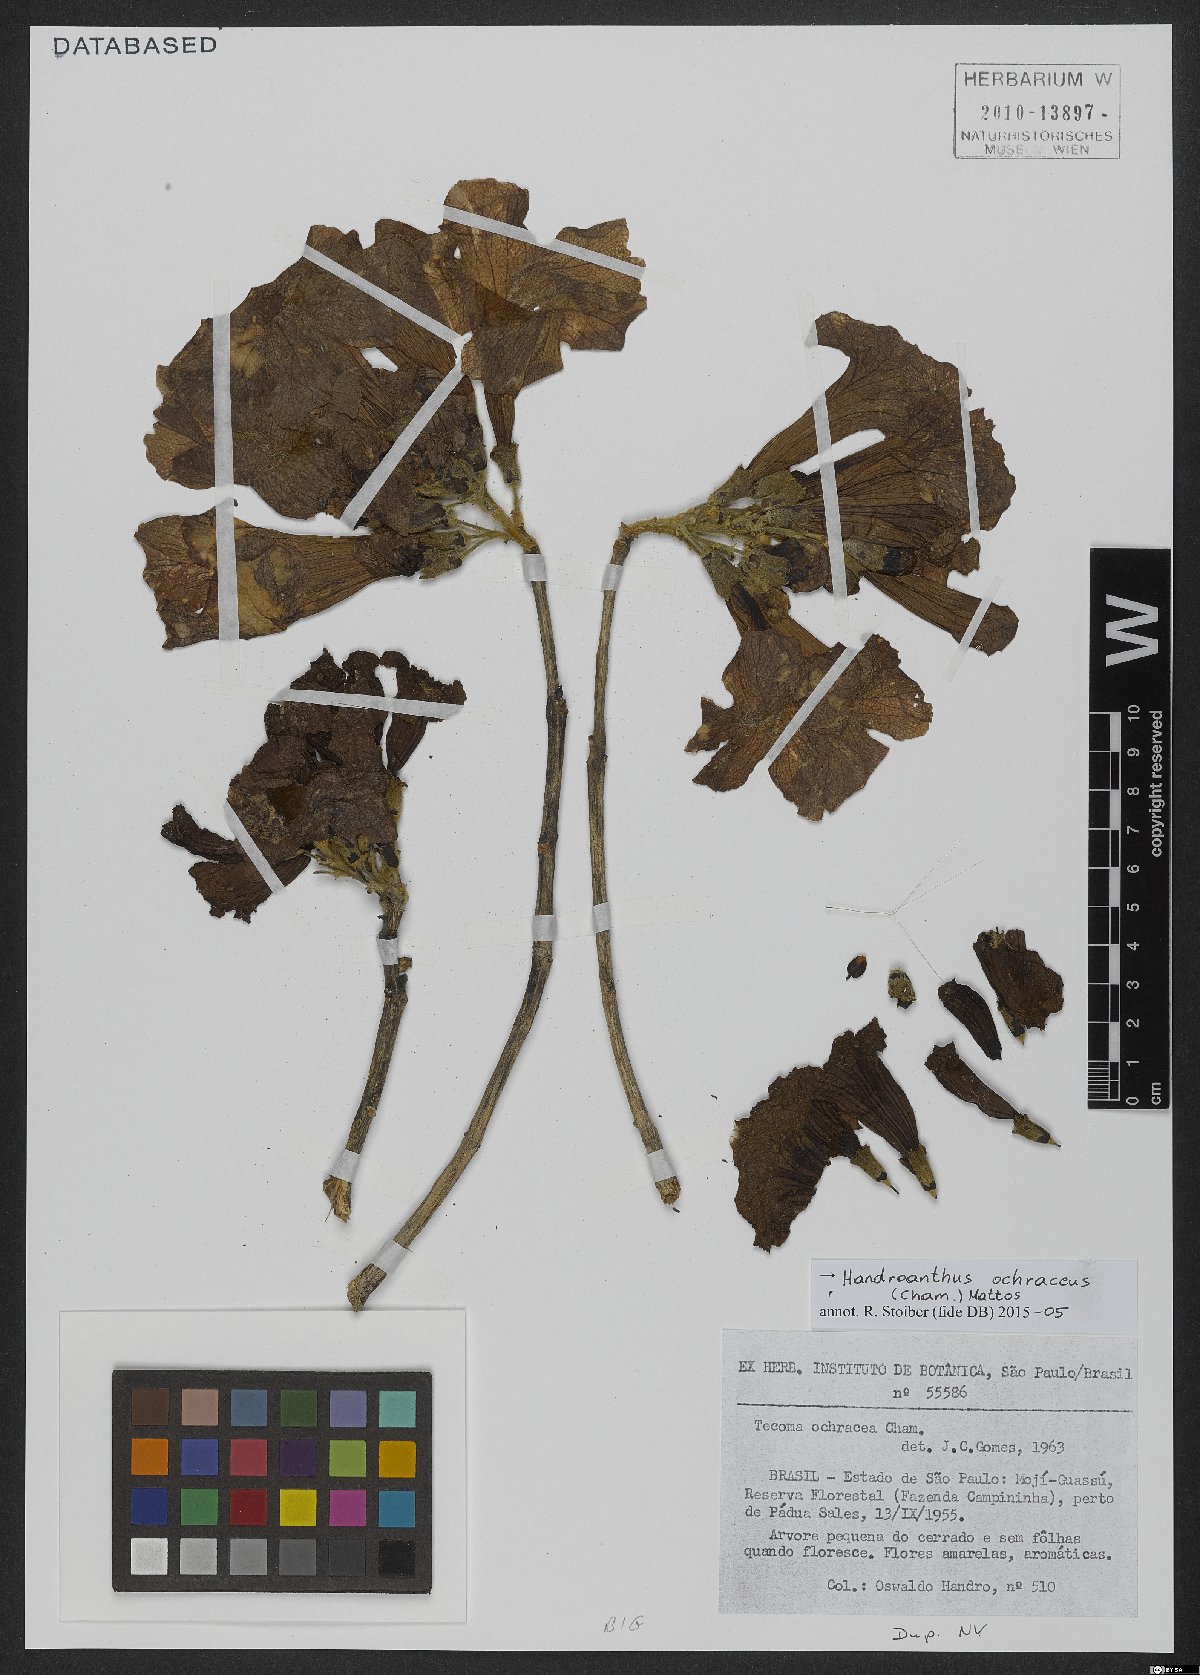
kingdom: Plantae
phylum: Tracheophyta
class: Magnoliopsida
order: Lamiales
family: Bignoniaceae
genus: Handroanthus
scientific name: Handroanthus ochraceus
